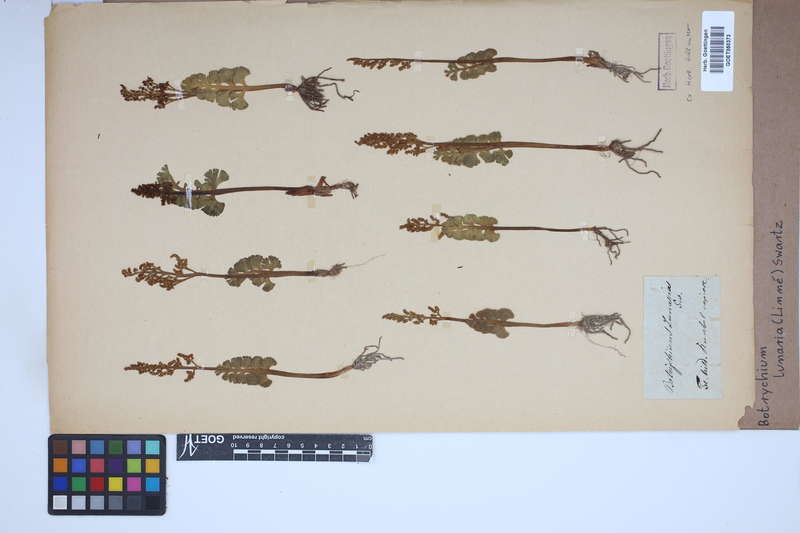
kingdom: Plantae
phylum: Tracheophyta
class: Polypodiopsida
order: Ophioglossales
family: Ophioglossaceae
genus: Botrychium
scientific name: Botrychium lunaria
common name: Moonwort
